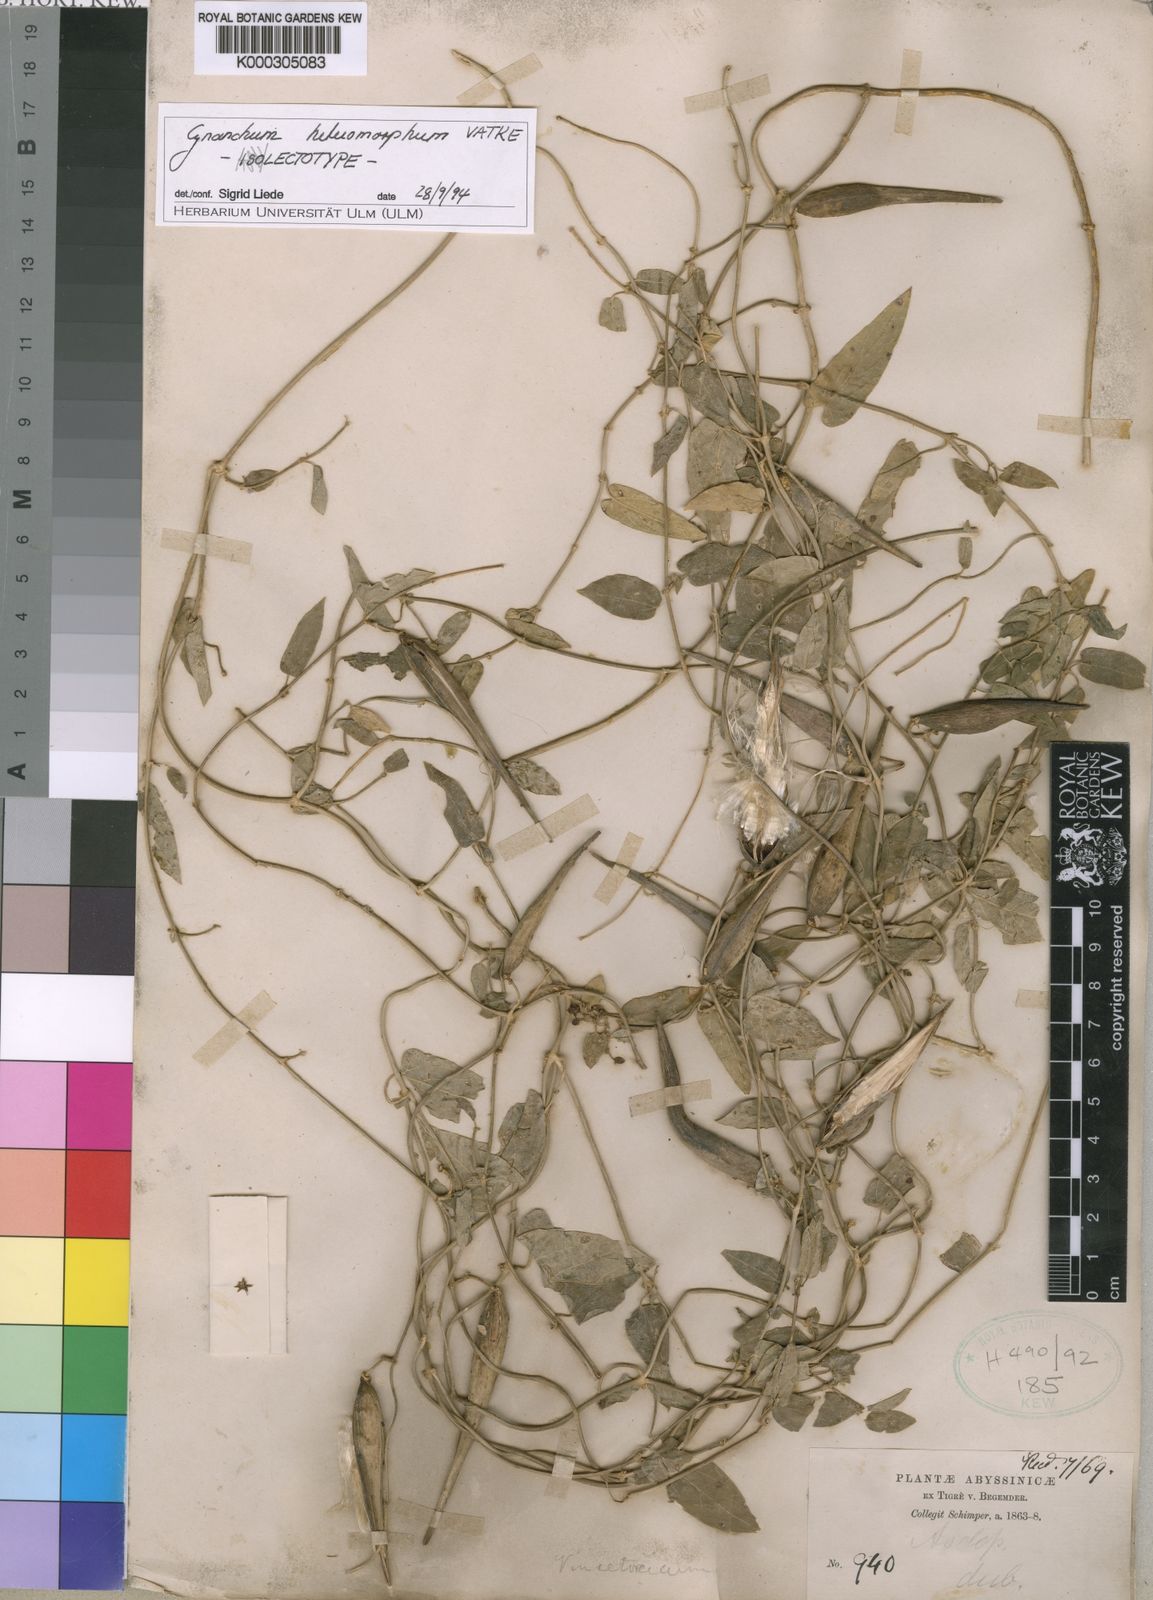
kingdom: Plantae
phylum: Tracheophyta
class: Magnoliopsida
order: Gentianales
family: Apocynaceae
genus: Cynanchum
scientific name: Cynanchum heteromorphum
